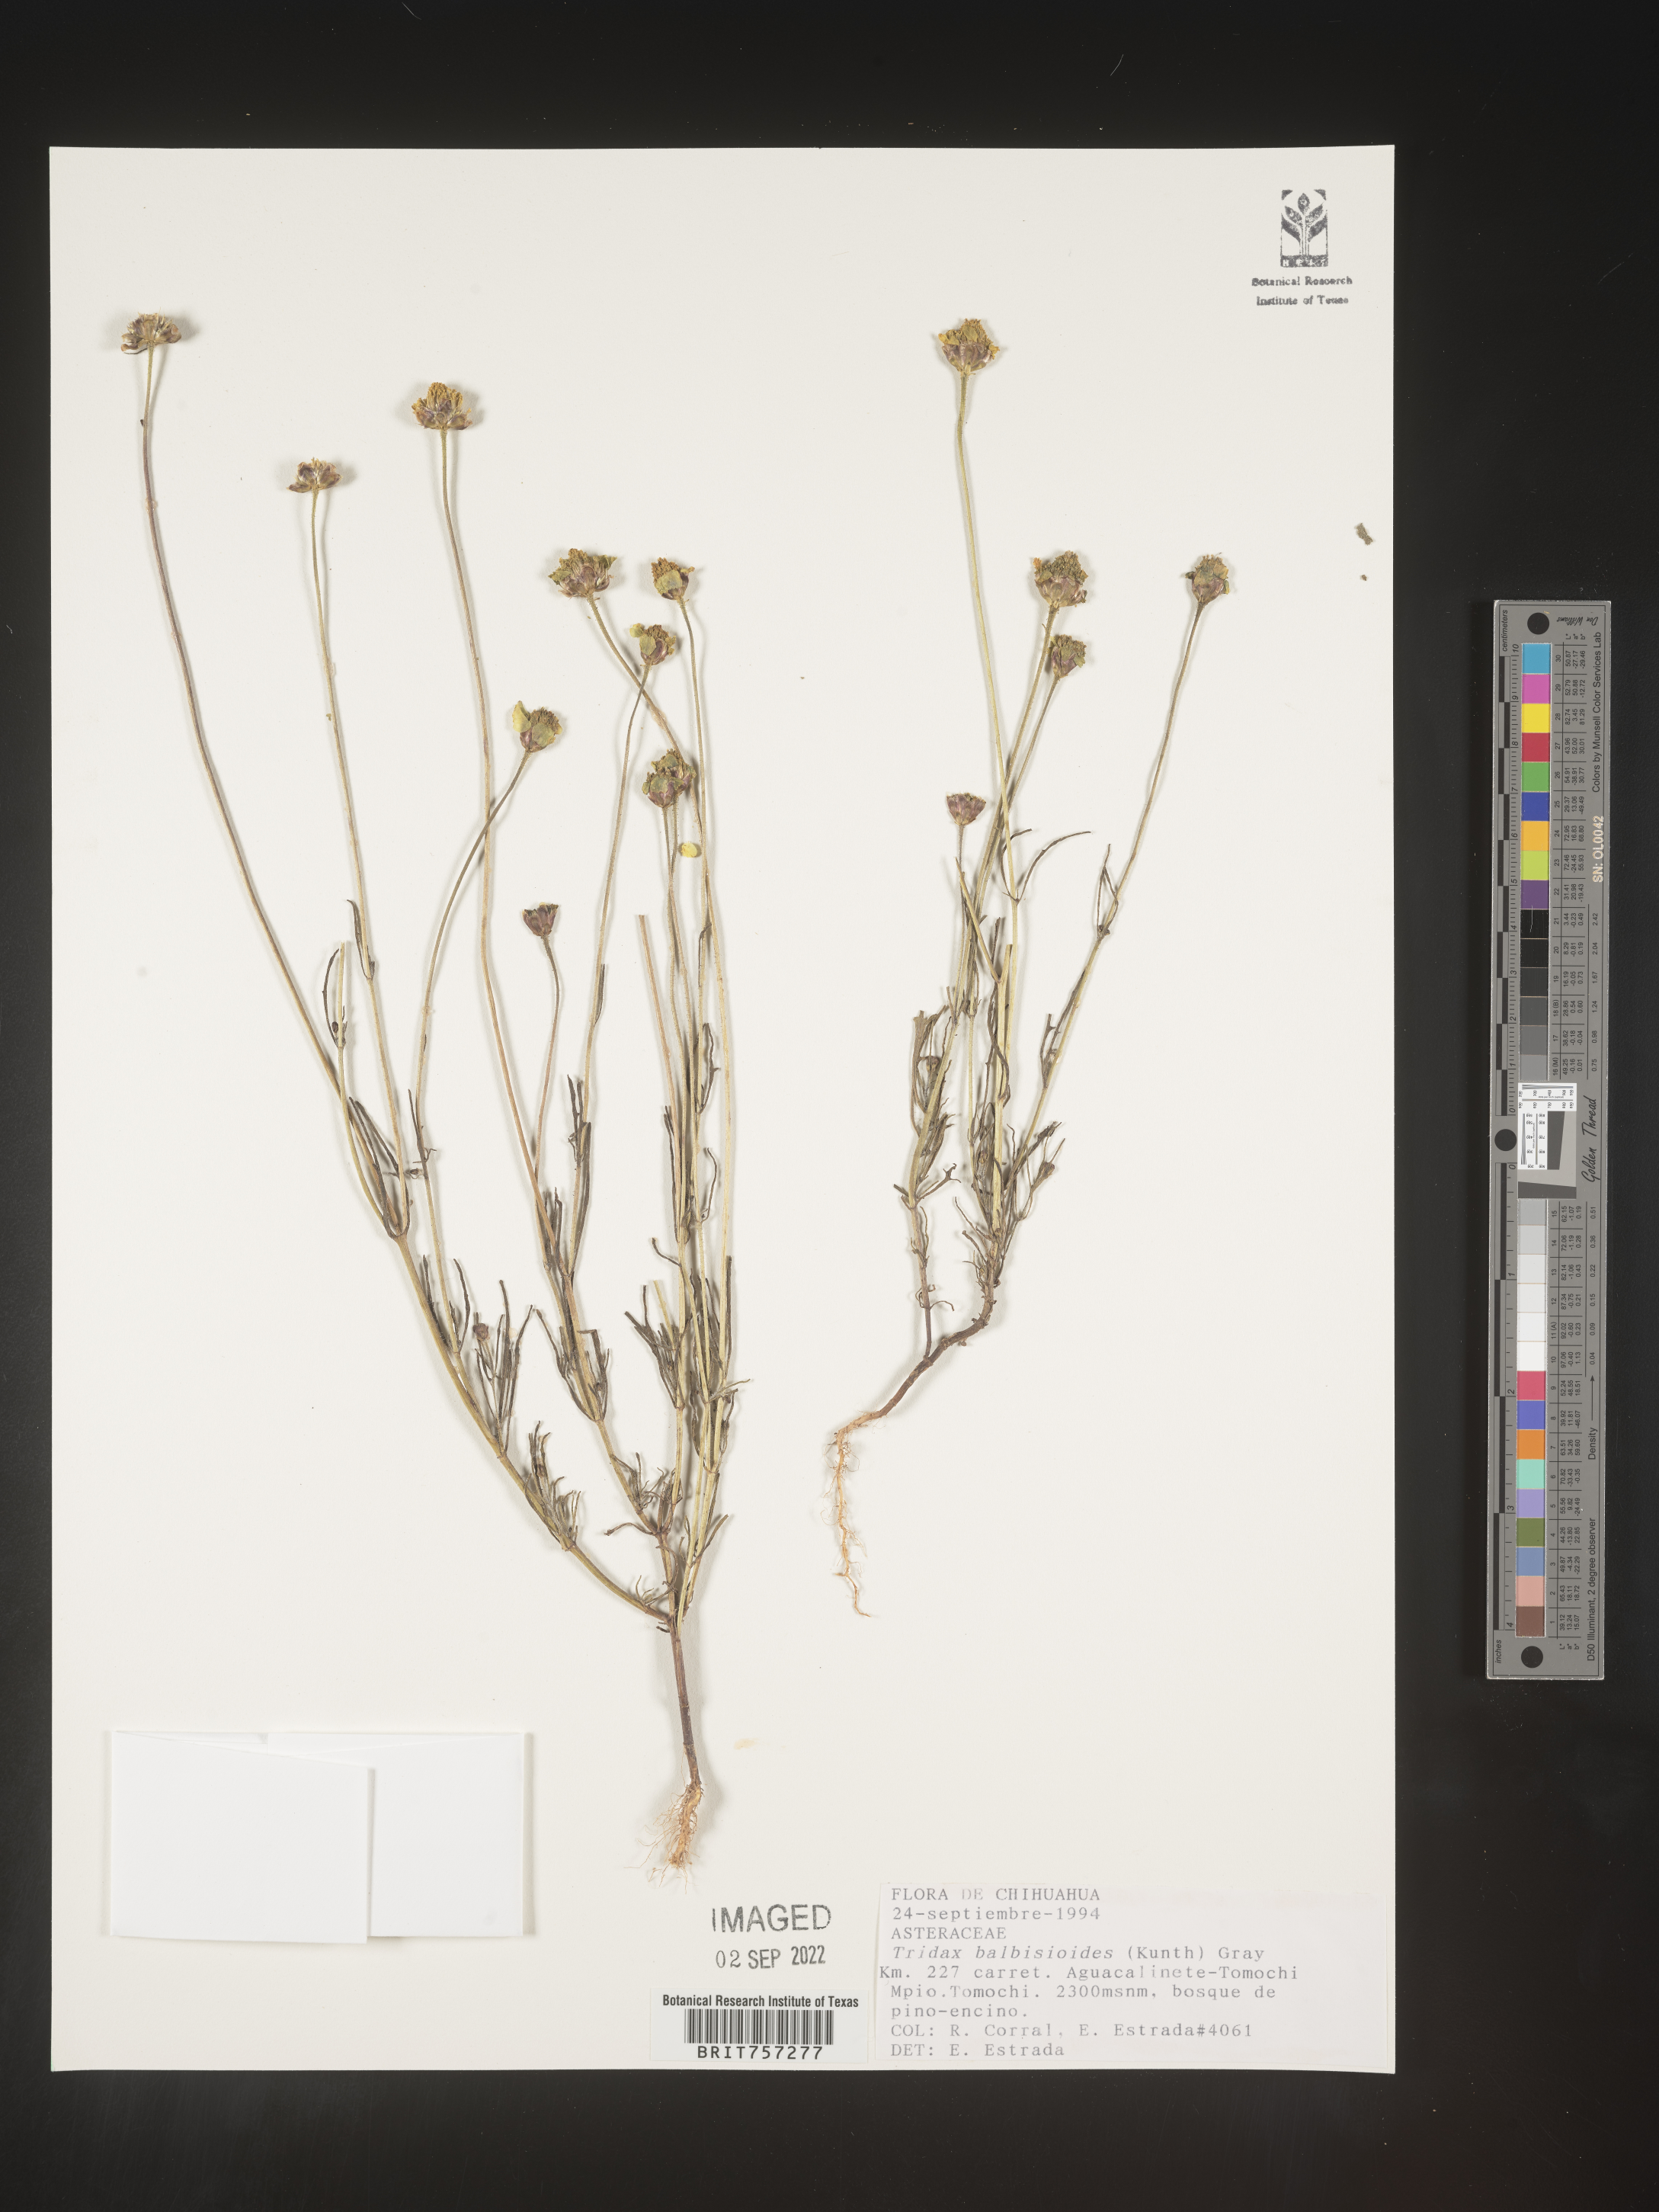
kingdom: Plantae
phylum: Tracheophyta
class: Magnoliopsida
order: Asterales
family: Asteraceae
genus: Tridax
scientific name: Tridax
